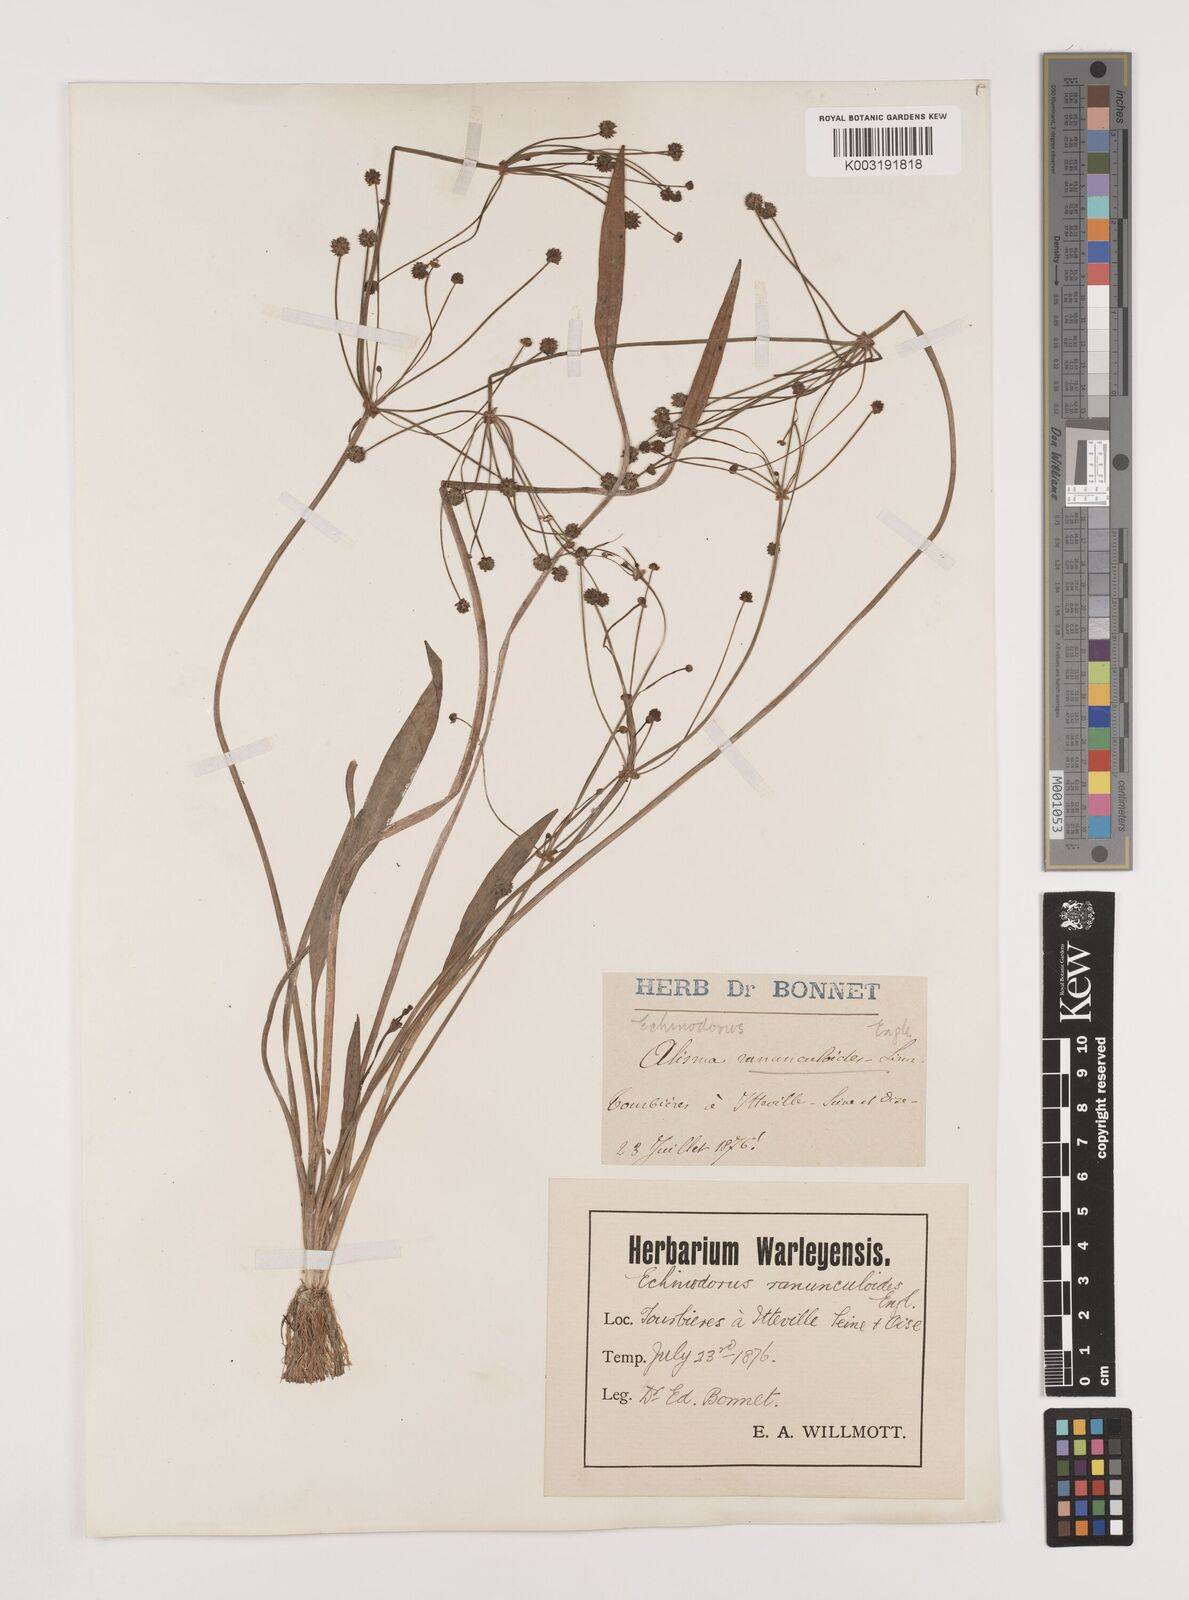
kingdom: Plantae
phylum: Tracheophyta
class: Liliopsida
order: Alismatales
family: Alismataceae
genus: Baldellia
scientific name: Baldellia ranunculoides
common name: Lesser water-plantain
